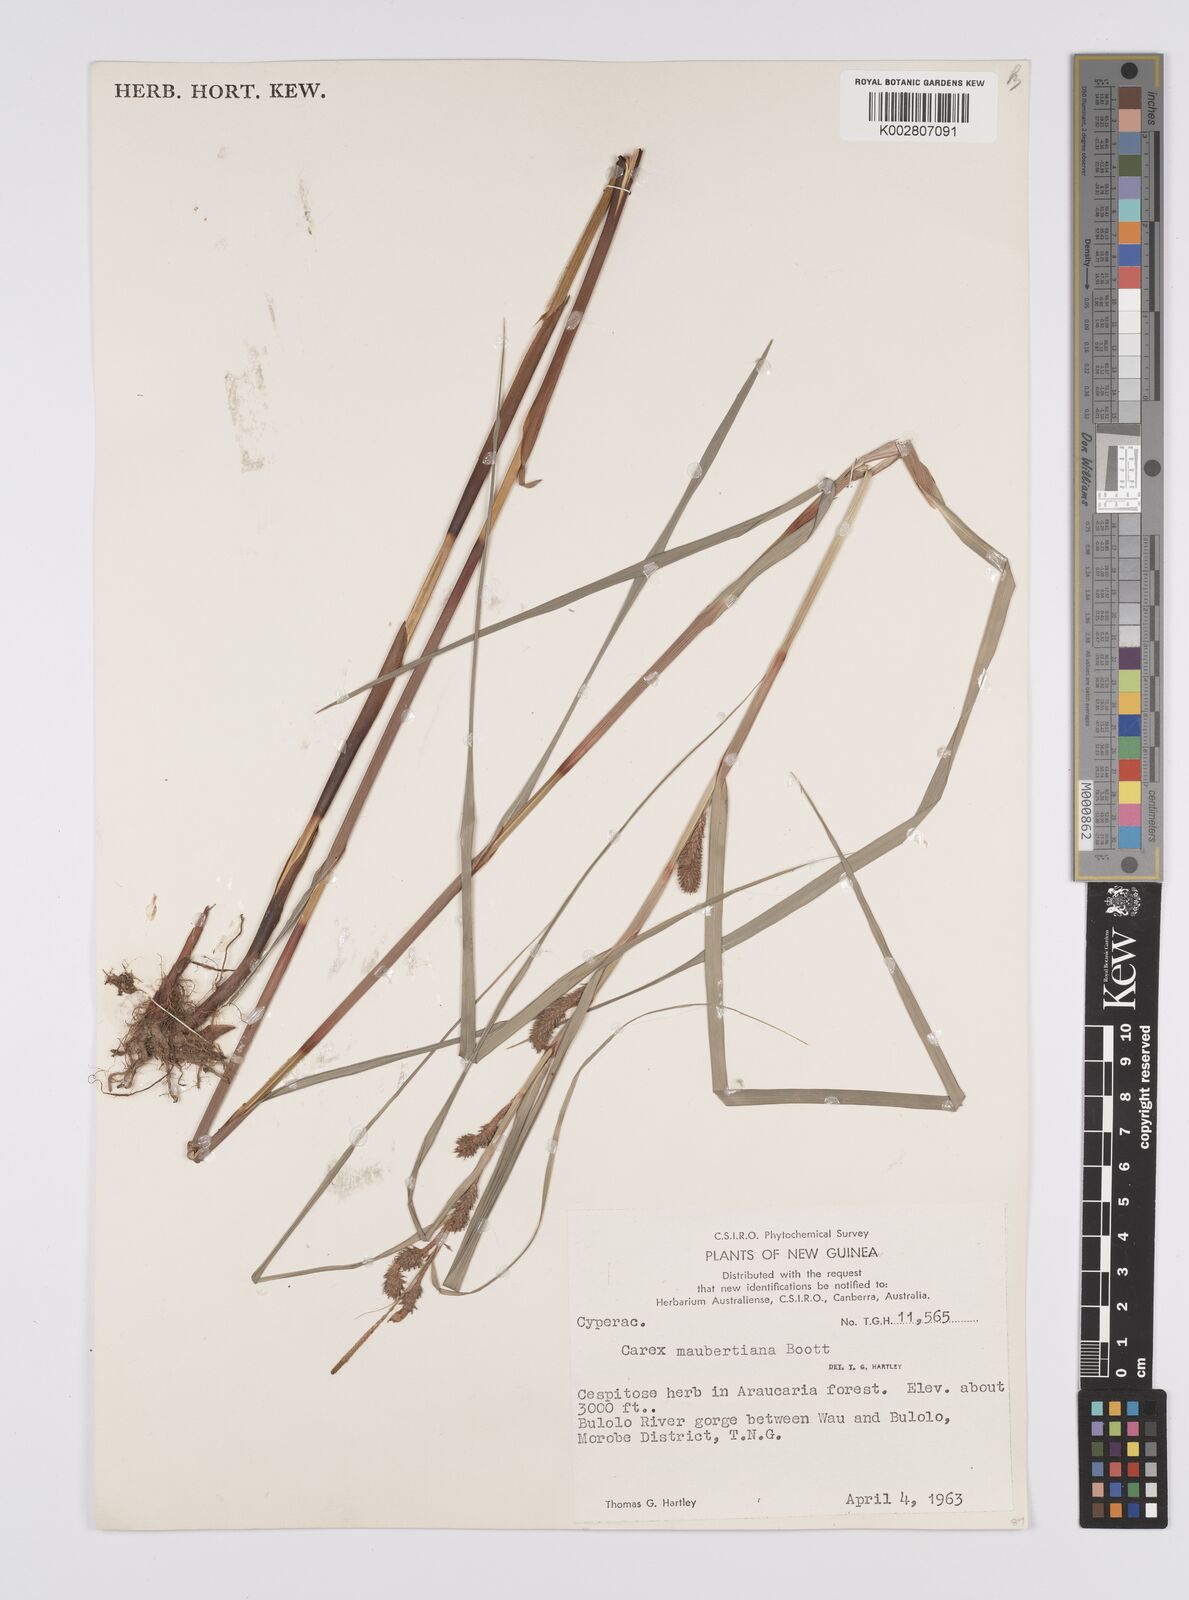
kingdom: Plantae
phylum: Tracheophyta
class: Liliopsida
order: Poales
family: Cyperaceae
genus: Carex
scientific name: Carex maubertiana
